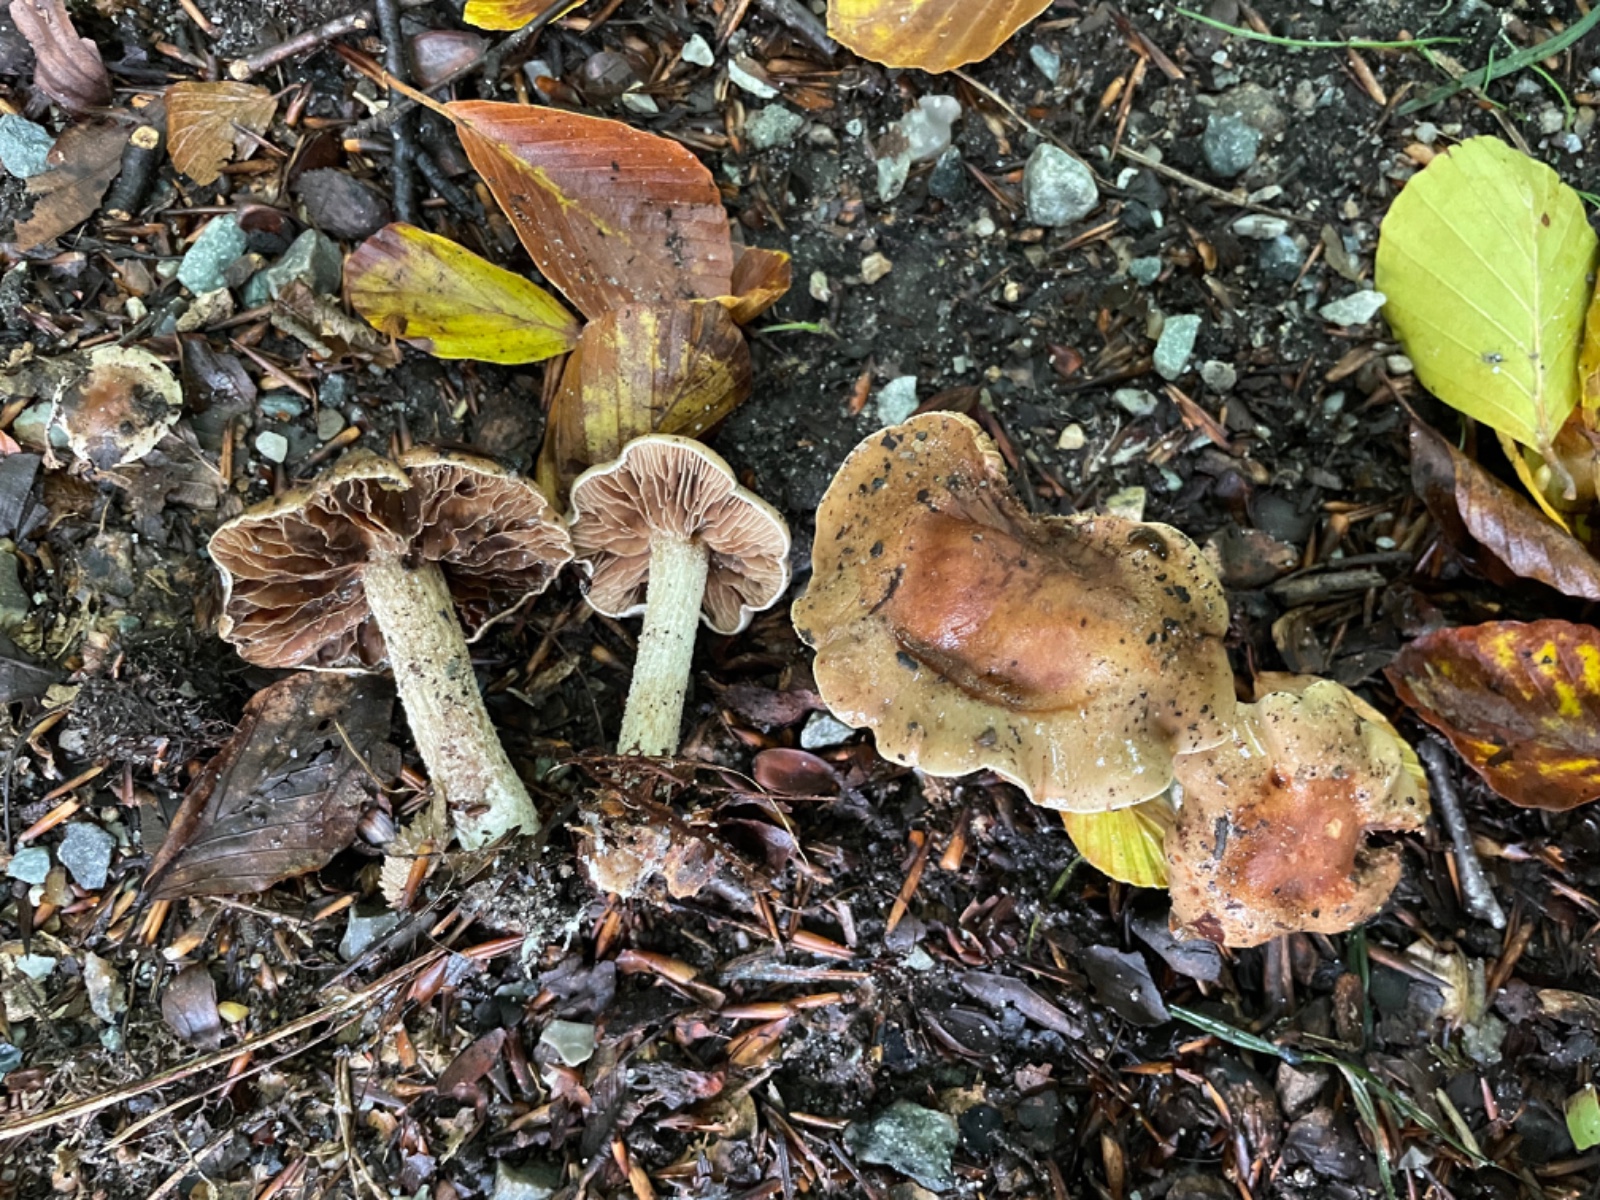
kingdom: Fungi
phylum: Basidiomycota
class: Agaricomycetes
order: Agaricales
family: Hymenogastraceae
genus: Hebeloma
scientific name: Hebeloma
